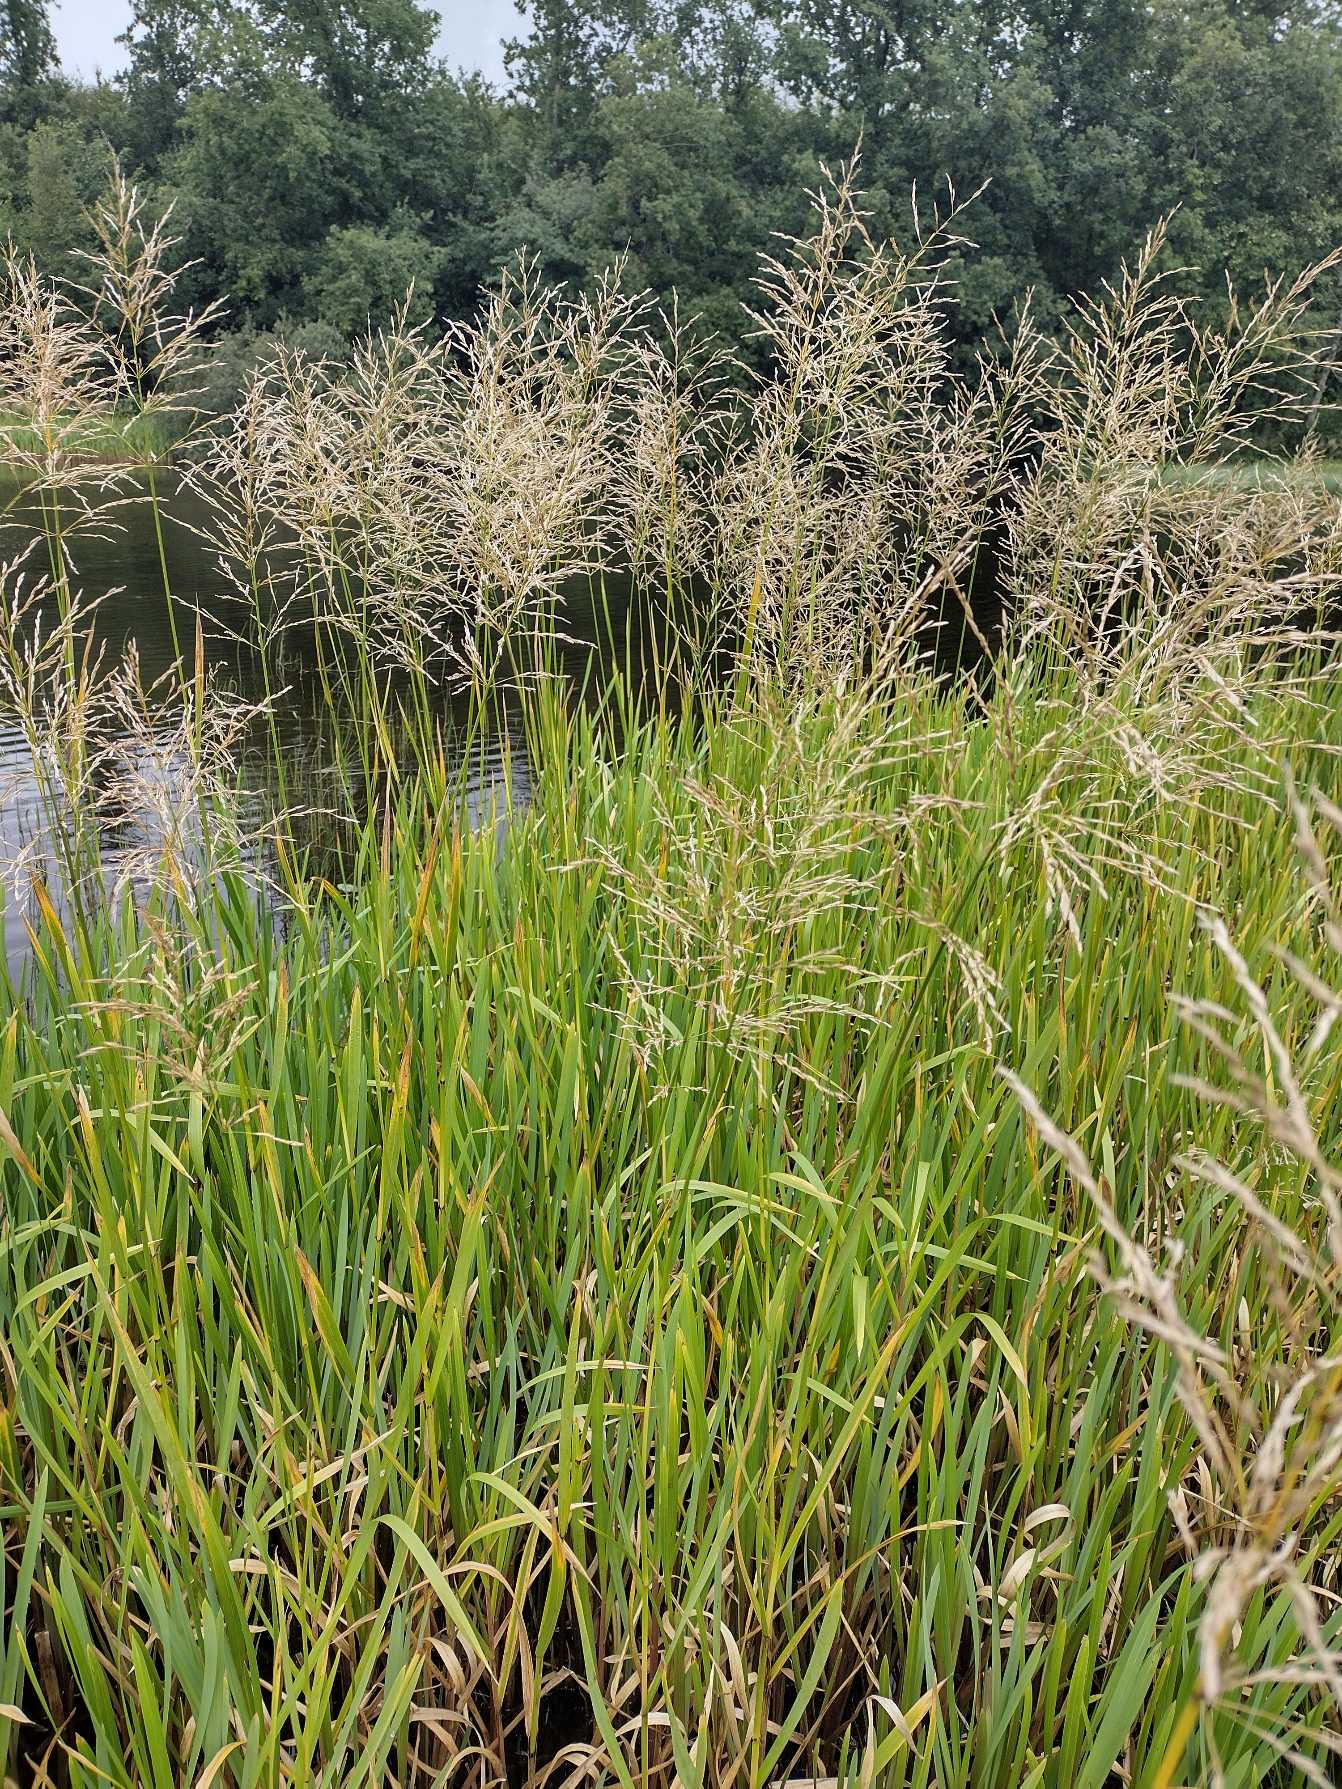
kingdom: Plantae
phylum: Tracheophyta
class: Liliopsida
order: Poales
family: Poaceae
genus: Glyceria
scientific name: Glyceria maxima
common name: Høj sødgræs
